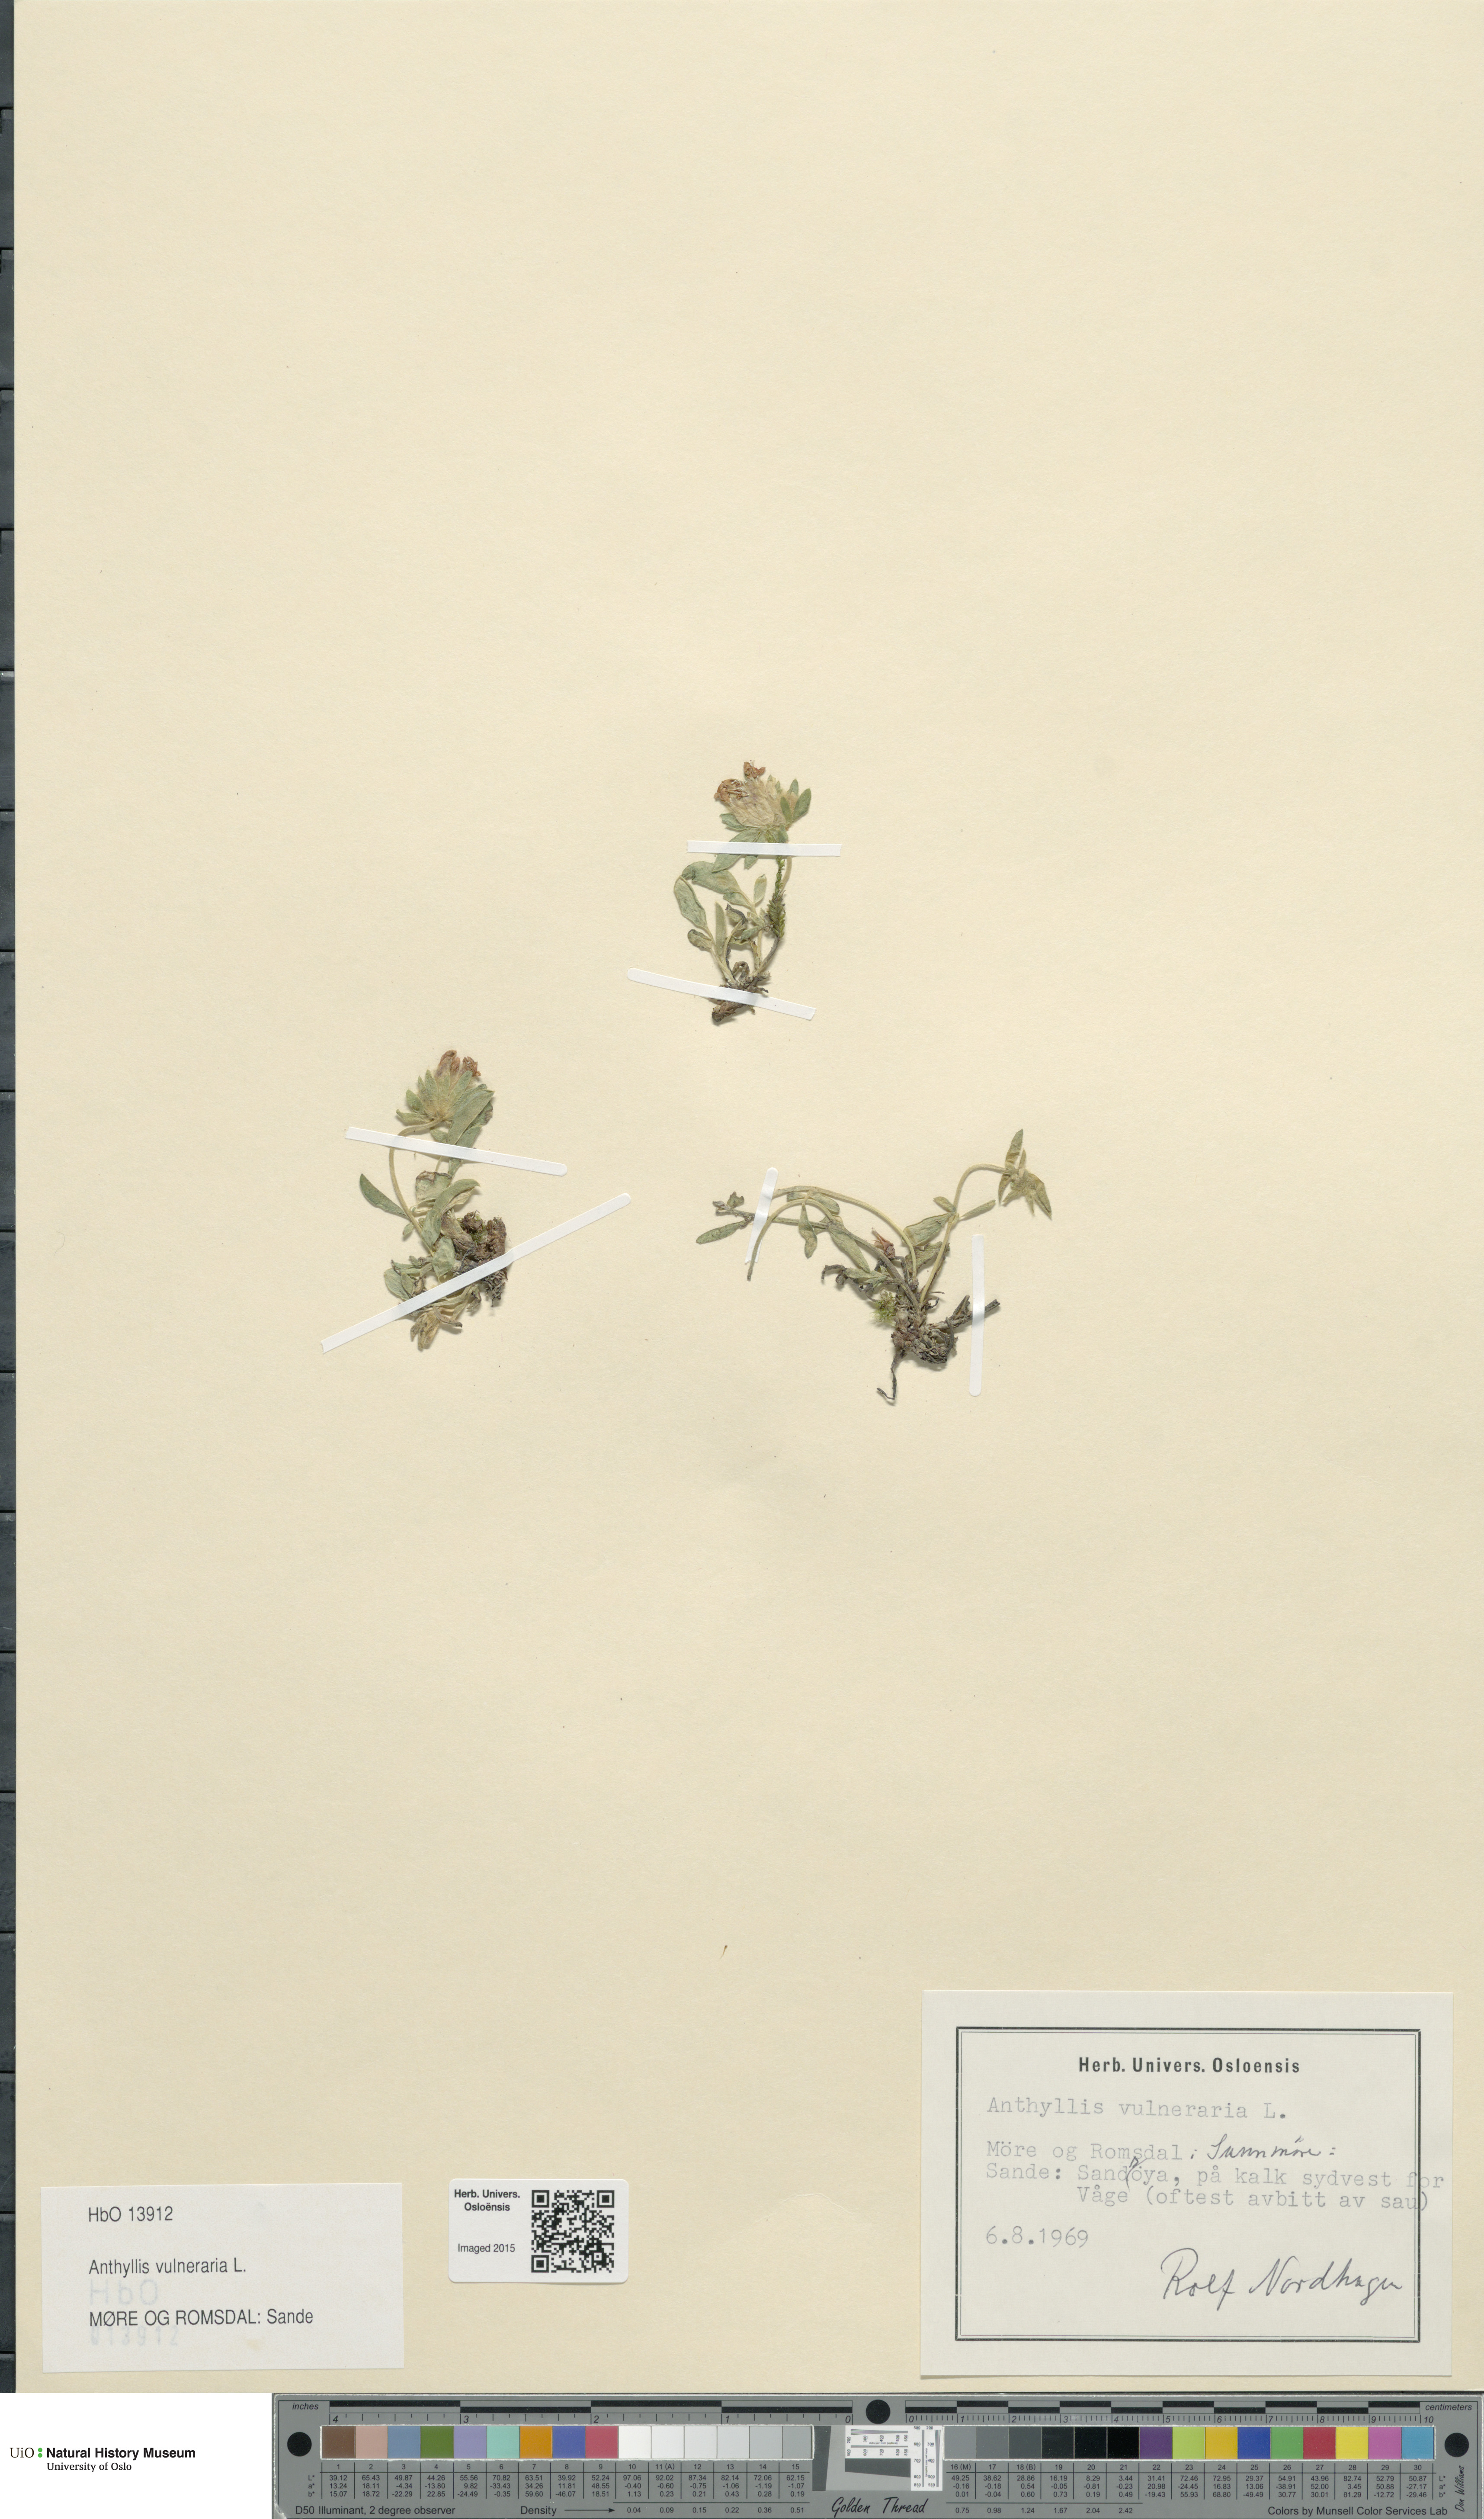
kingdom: Plantae
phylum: Tracheophyta
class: Magnoliopsida
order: Fabales
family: Fabaceae
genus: Anthyllis
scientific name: Anthyllis vulneraria
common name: Kidney vetch
